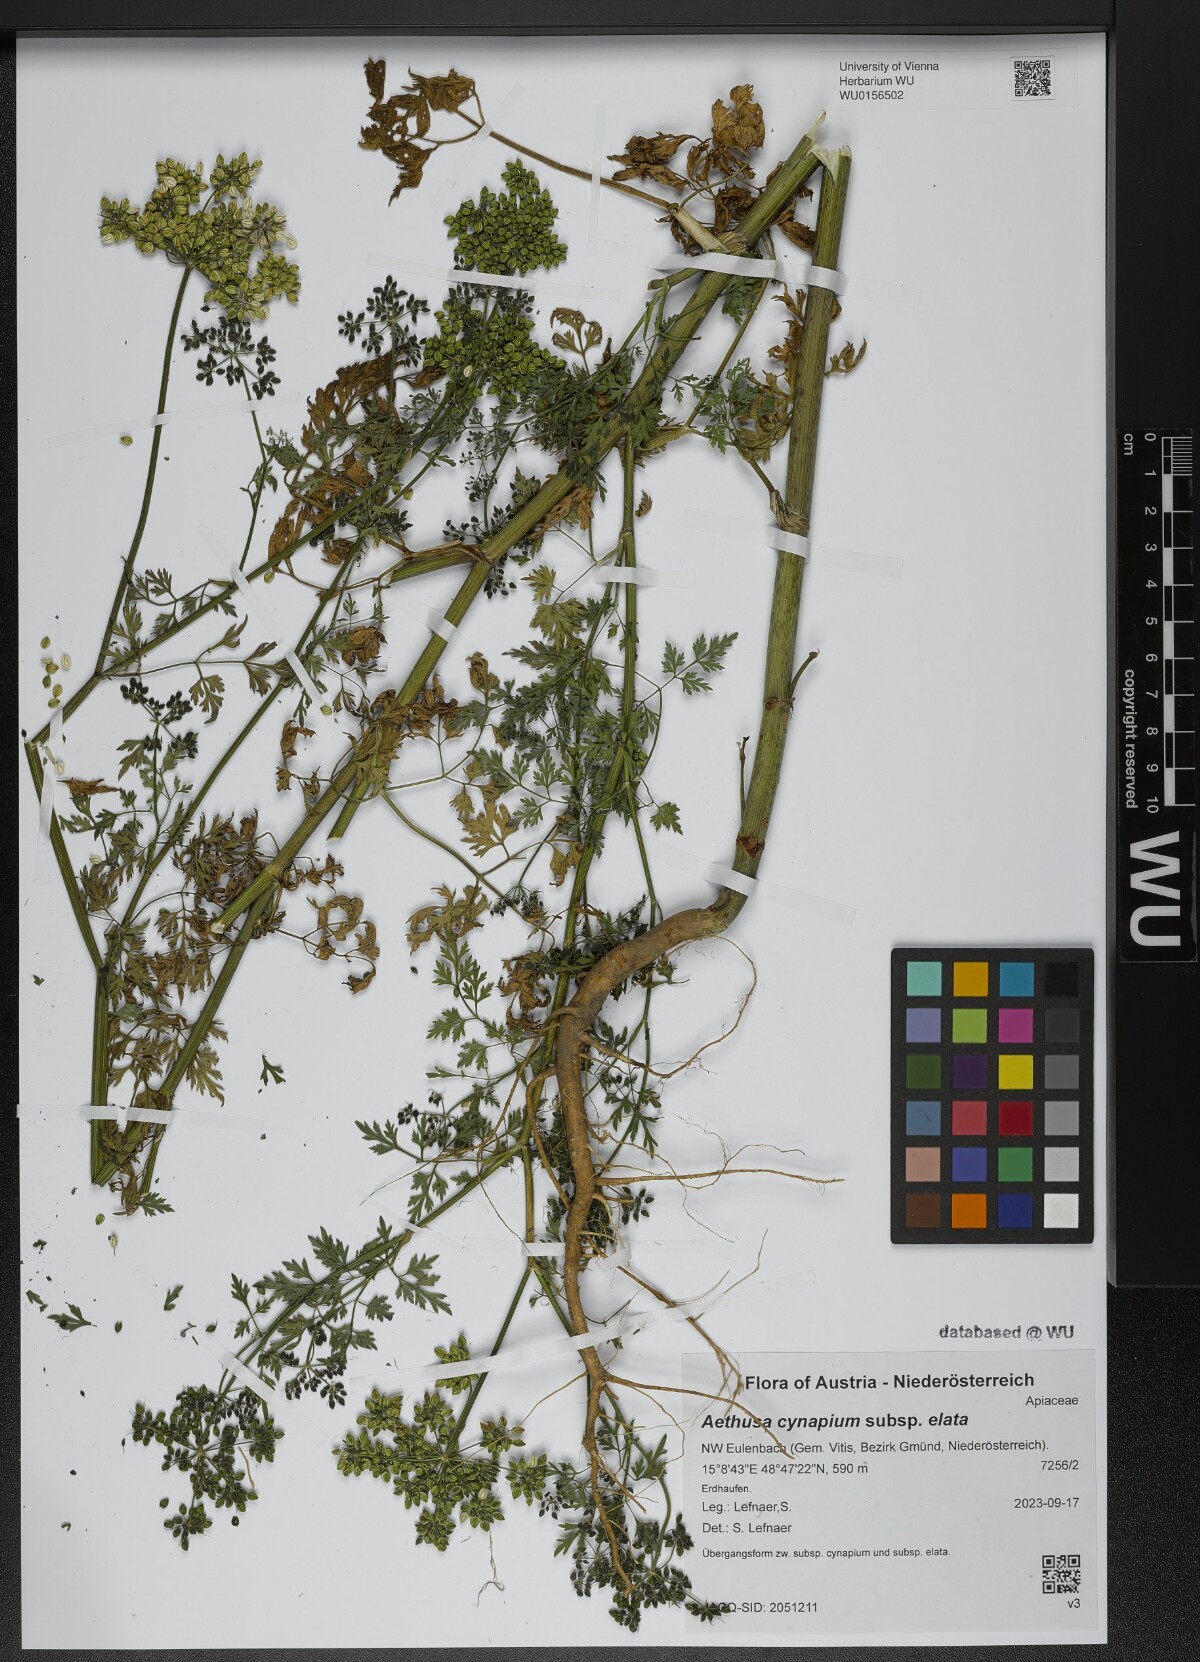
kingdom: Plantae
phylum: Tracheophyta
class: Magnoliopsida
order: Apiales
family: Apiaceae
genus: Aethusa
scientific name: Aethusa cynapium
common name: Fool's parsley
